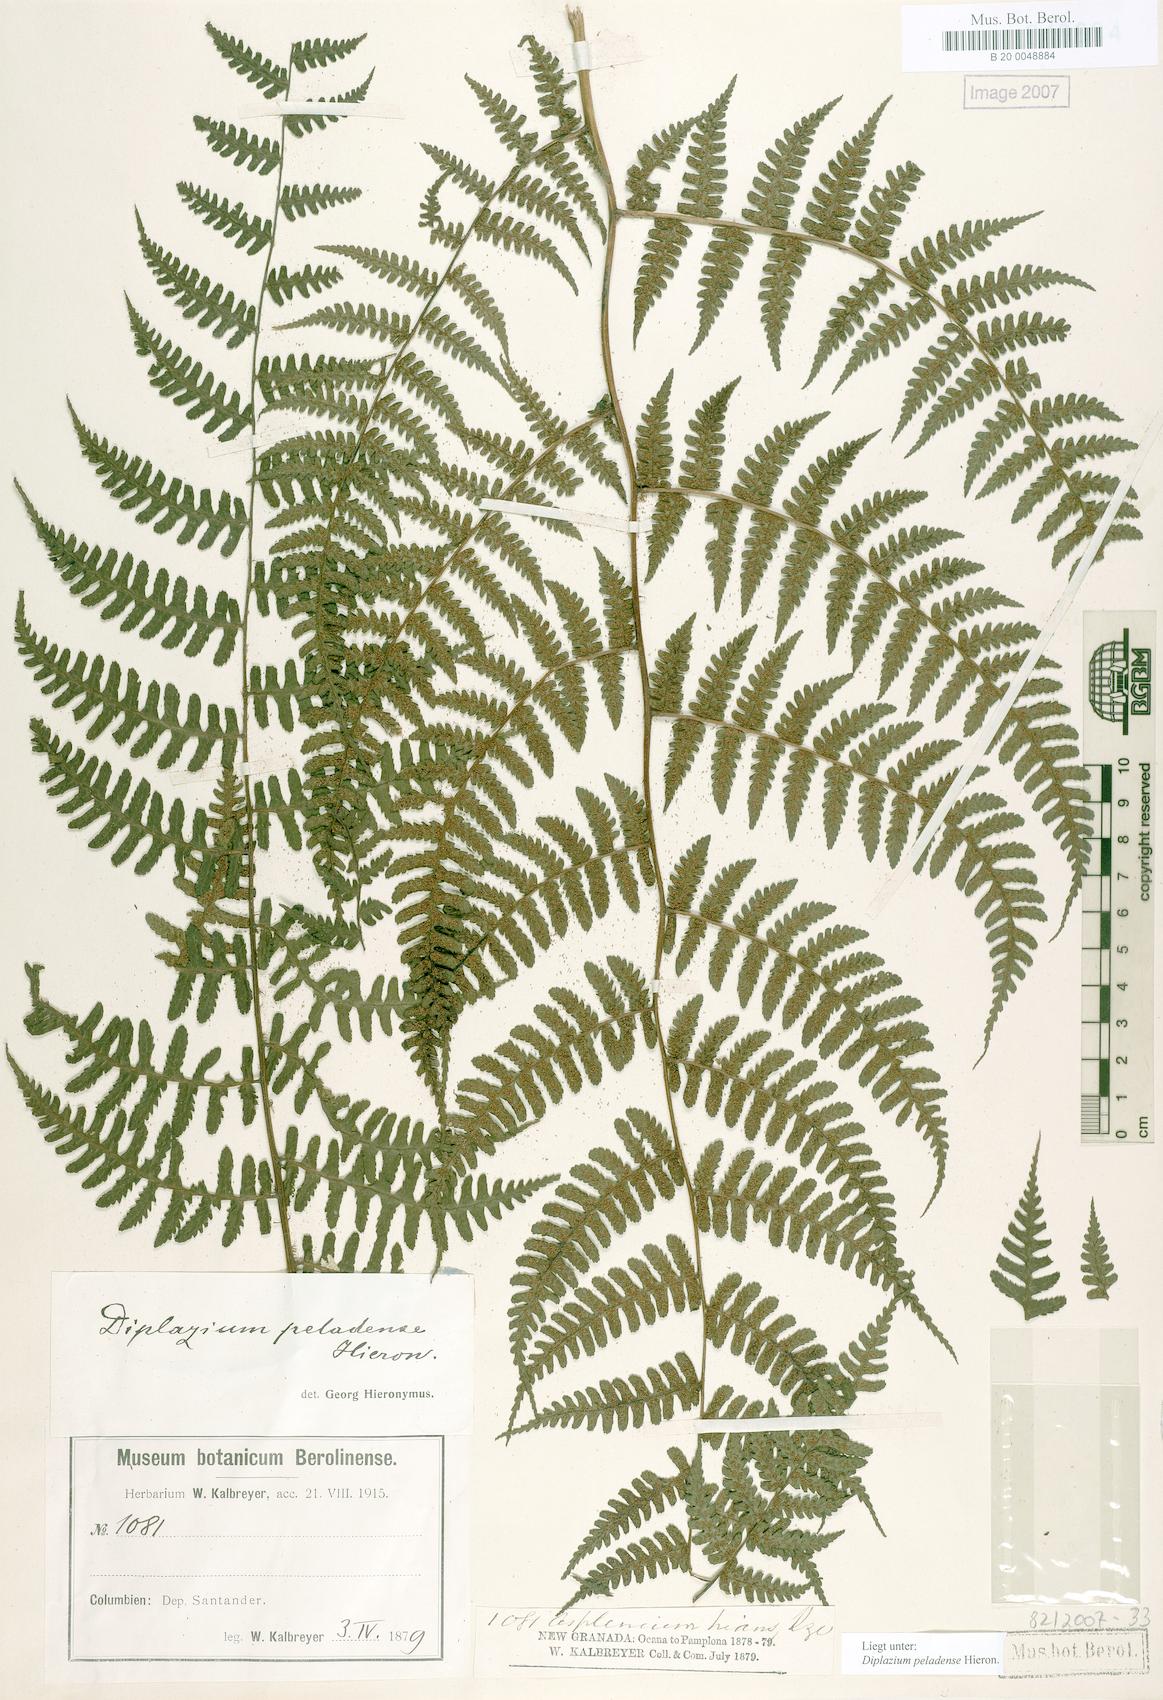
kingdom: Plantae
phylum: Tracheophyta
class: Polypodiopsida
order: Polypodiales
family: Athyriaceae
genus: Diplazium
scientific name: Diplazium peladense
